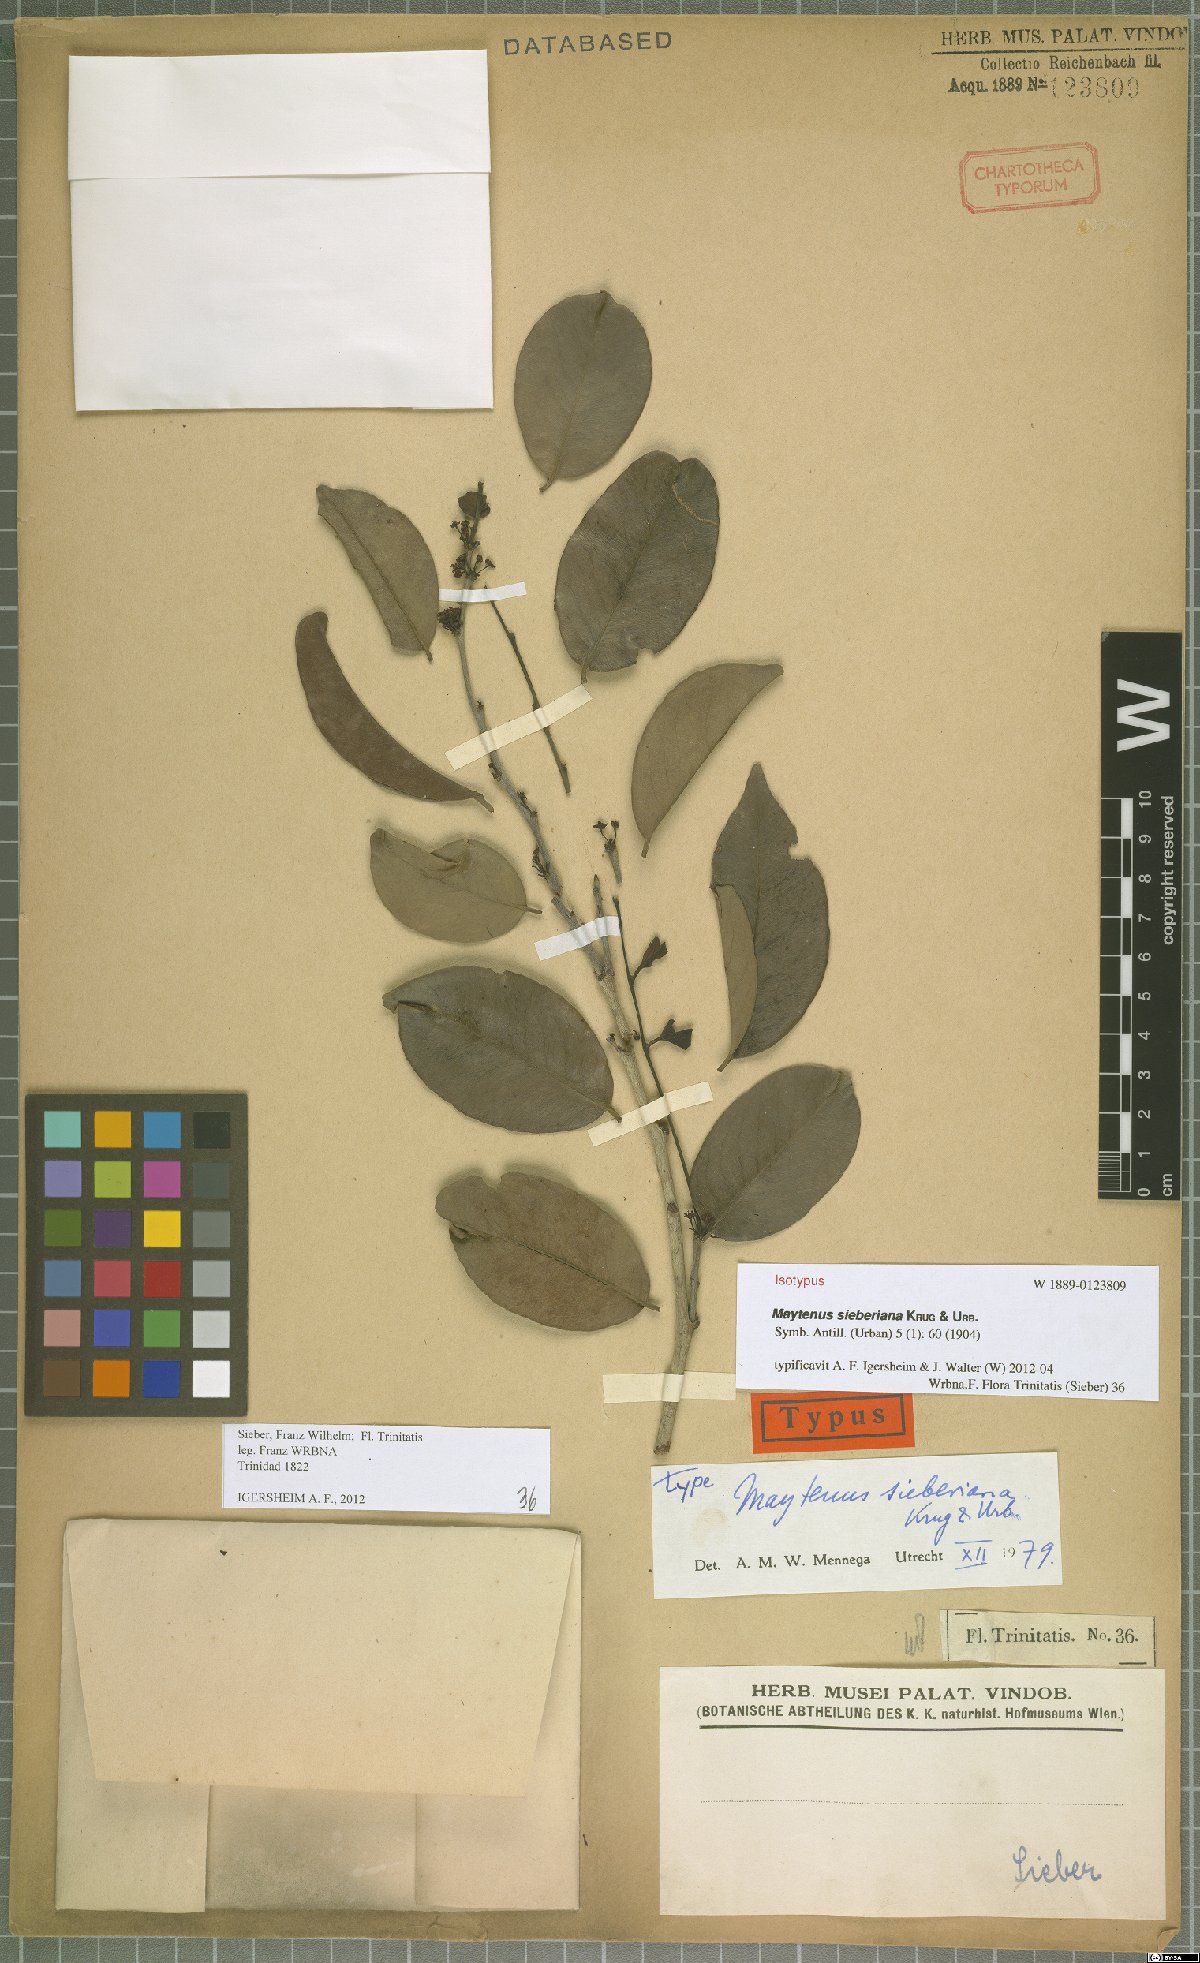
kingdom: Plantae
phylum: Tracheophyta
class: Magnoliopsida
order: Celastrales
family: Celastraceae
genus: Monteverdia
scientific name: Monteverdia sieberiana
